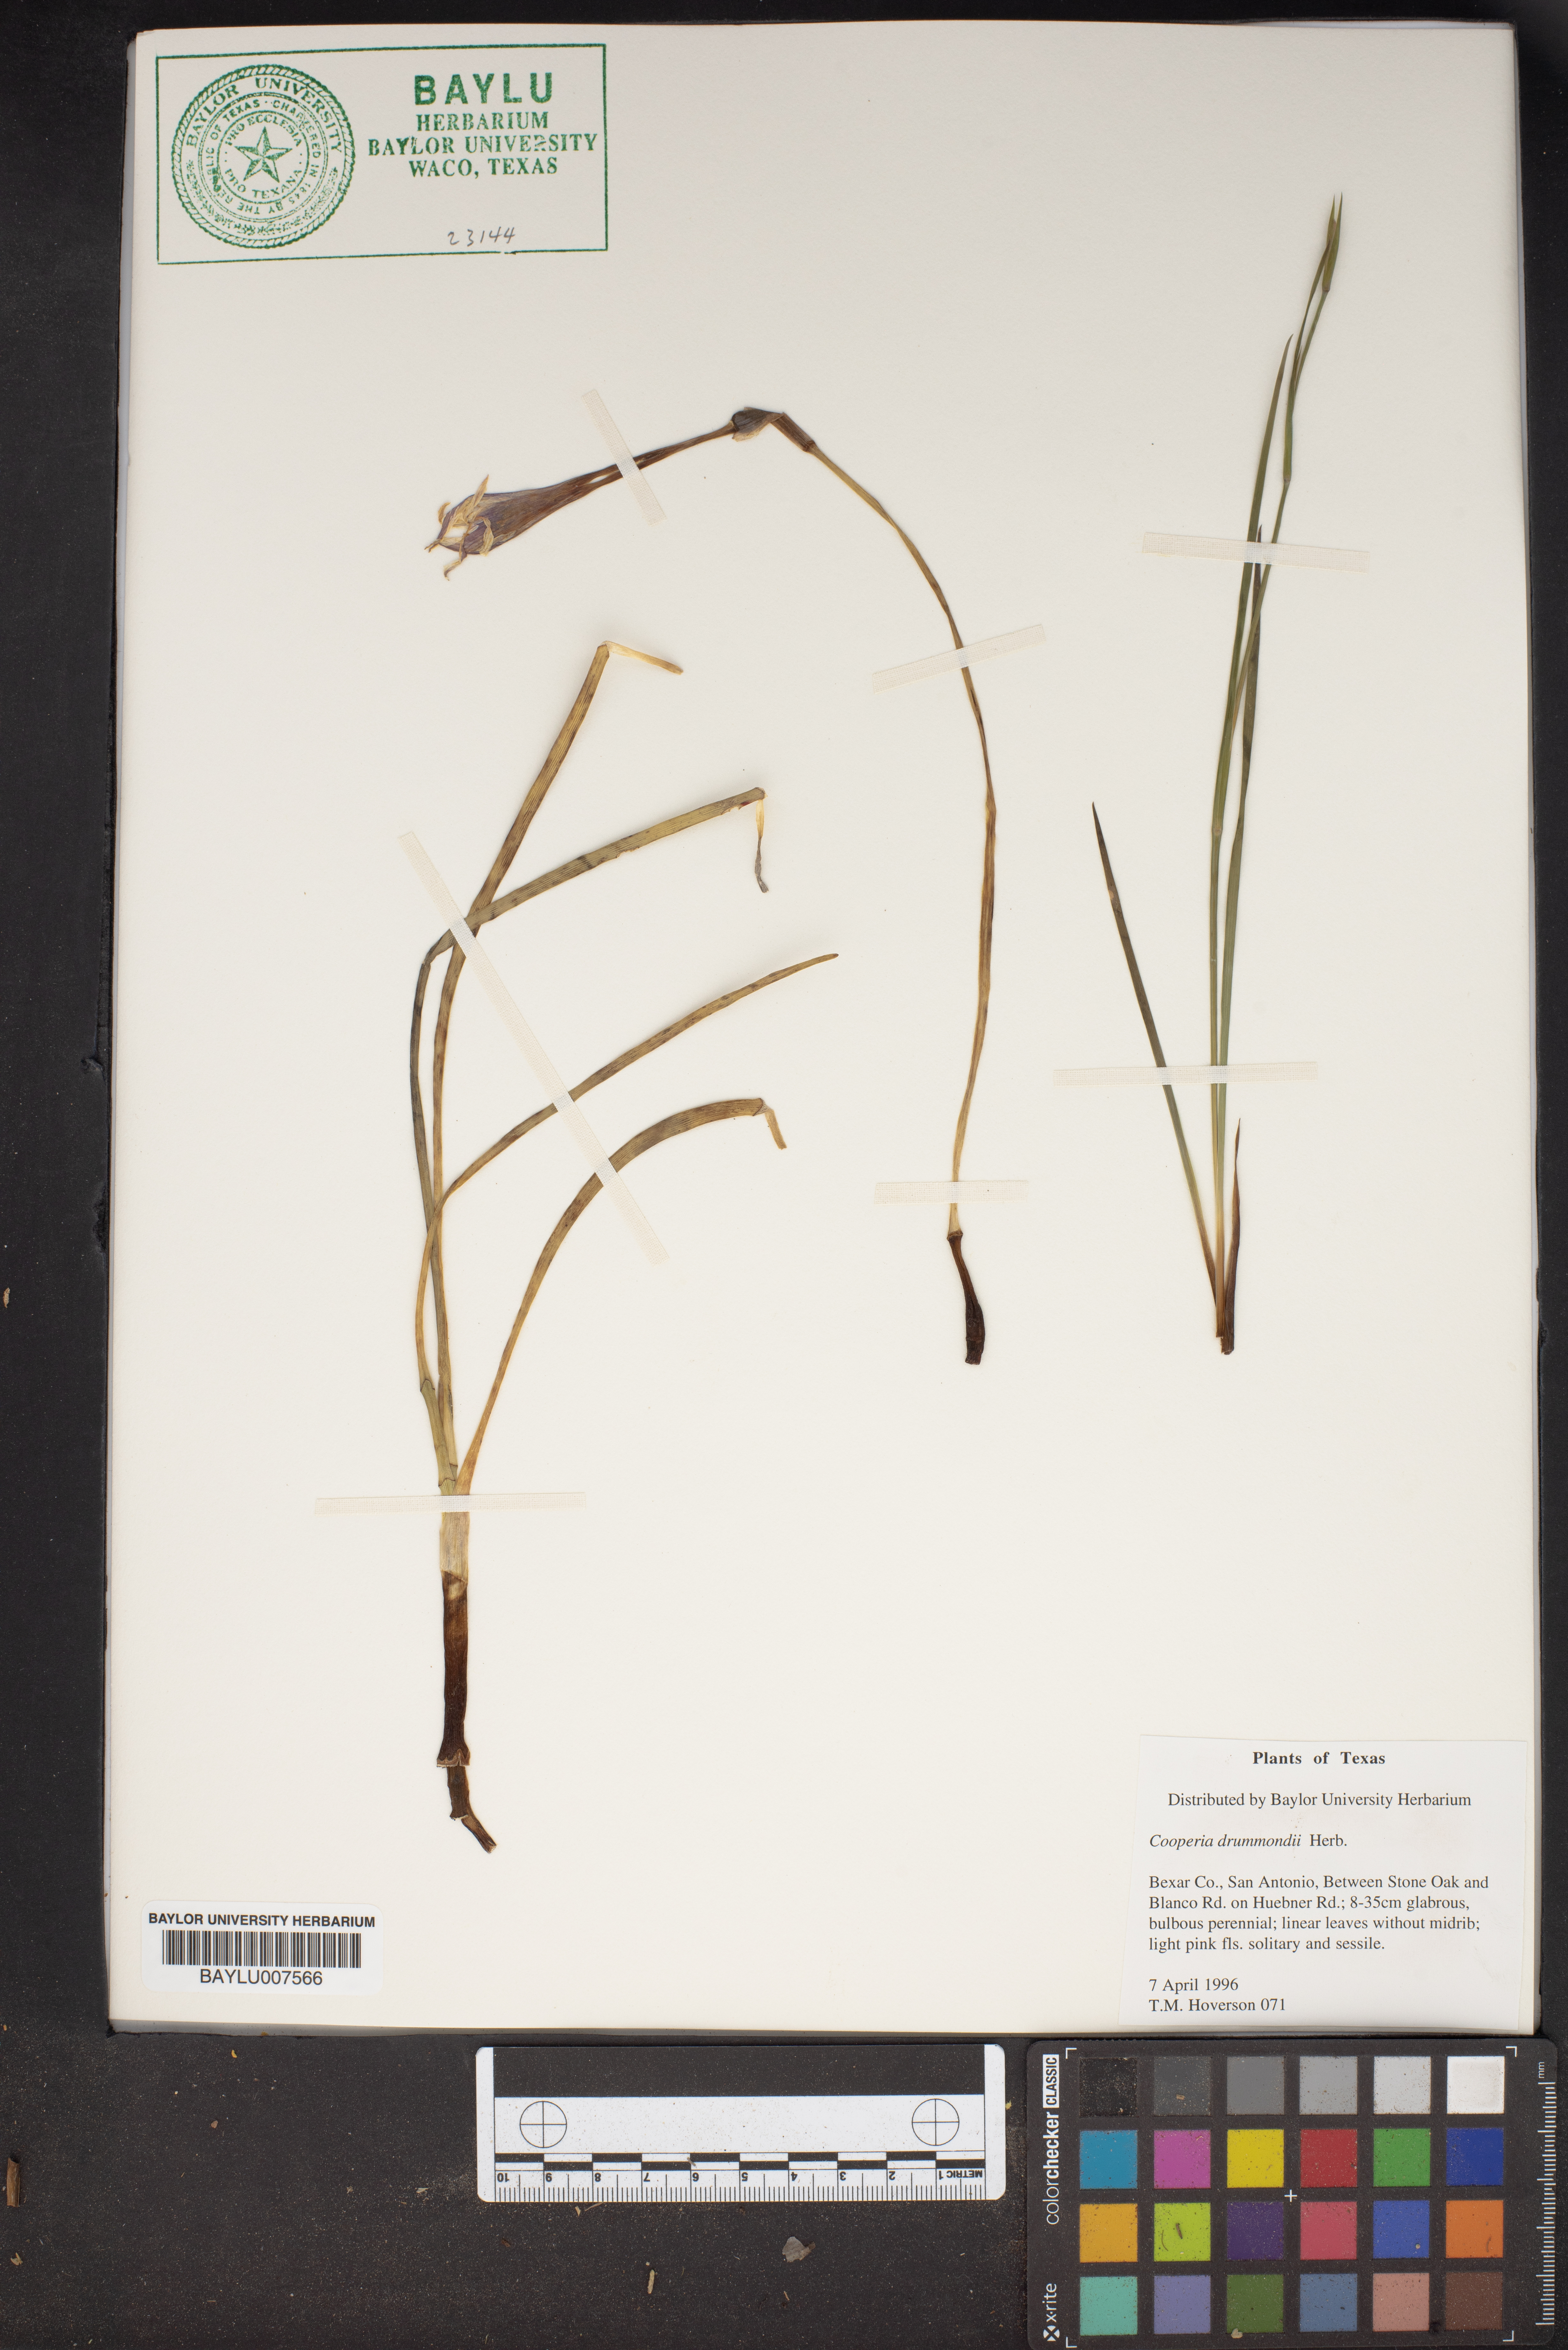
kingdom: Plantae
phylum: Tracheophyta
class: Liliopsida
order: Asparagales
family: Amaryllidaceae
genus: Zephyranthes
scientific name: Zephyranthes chlorosolen
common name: Evening rain-lily
